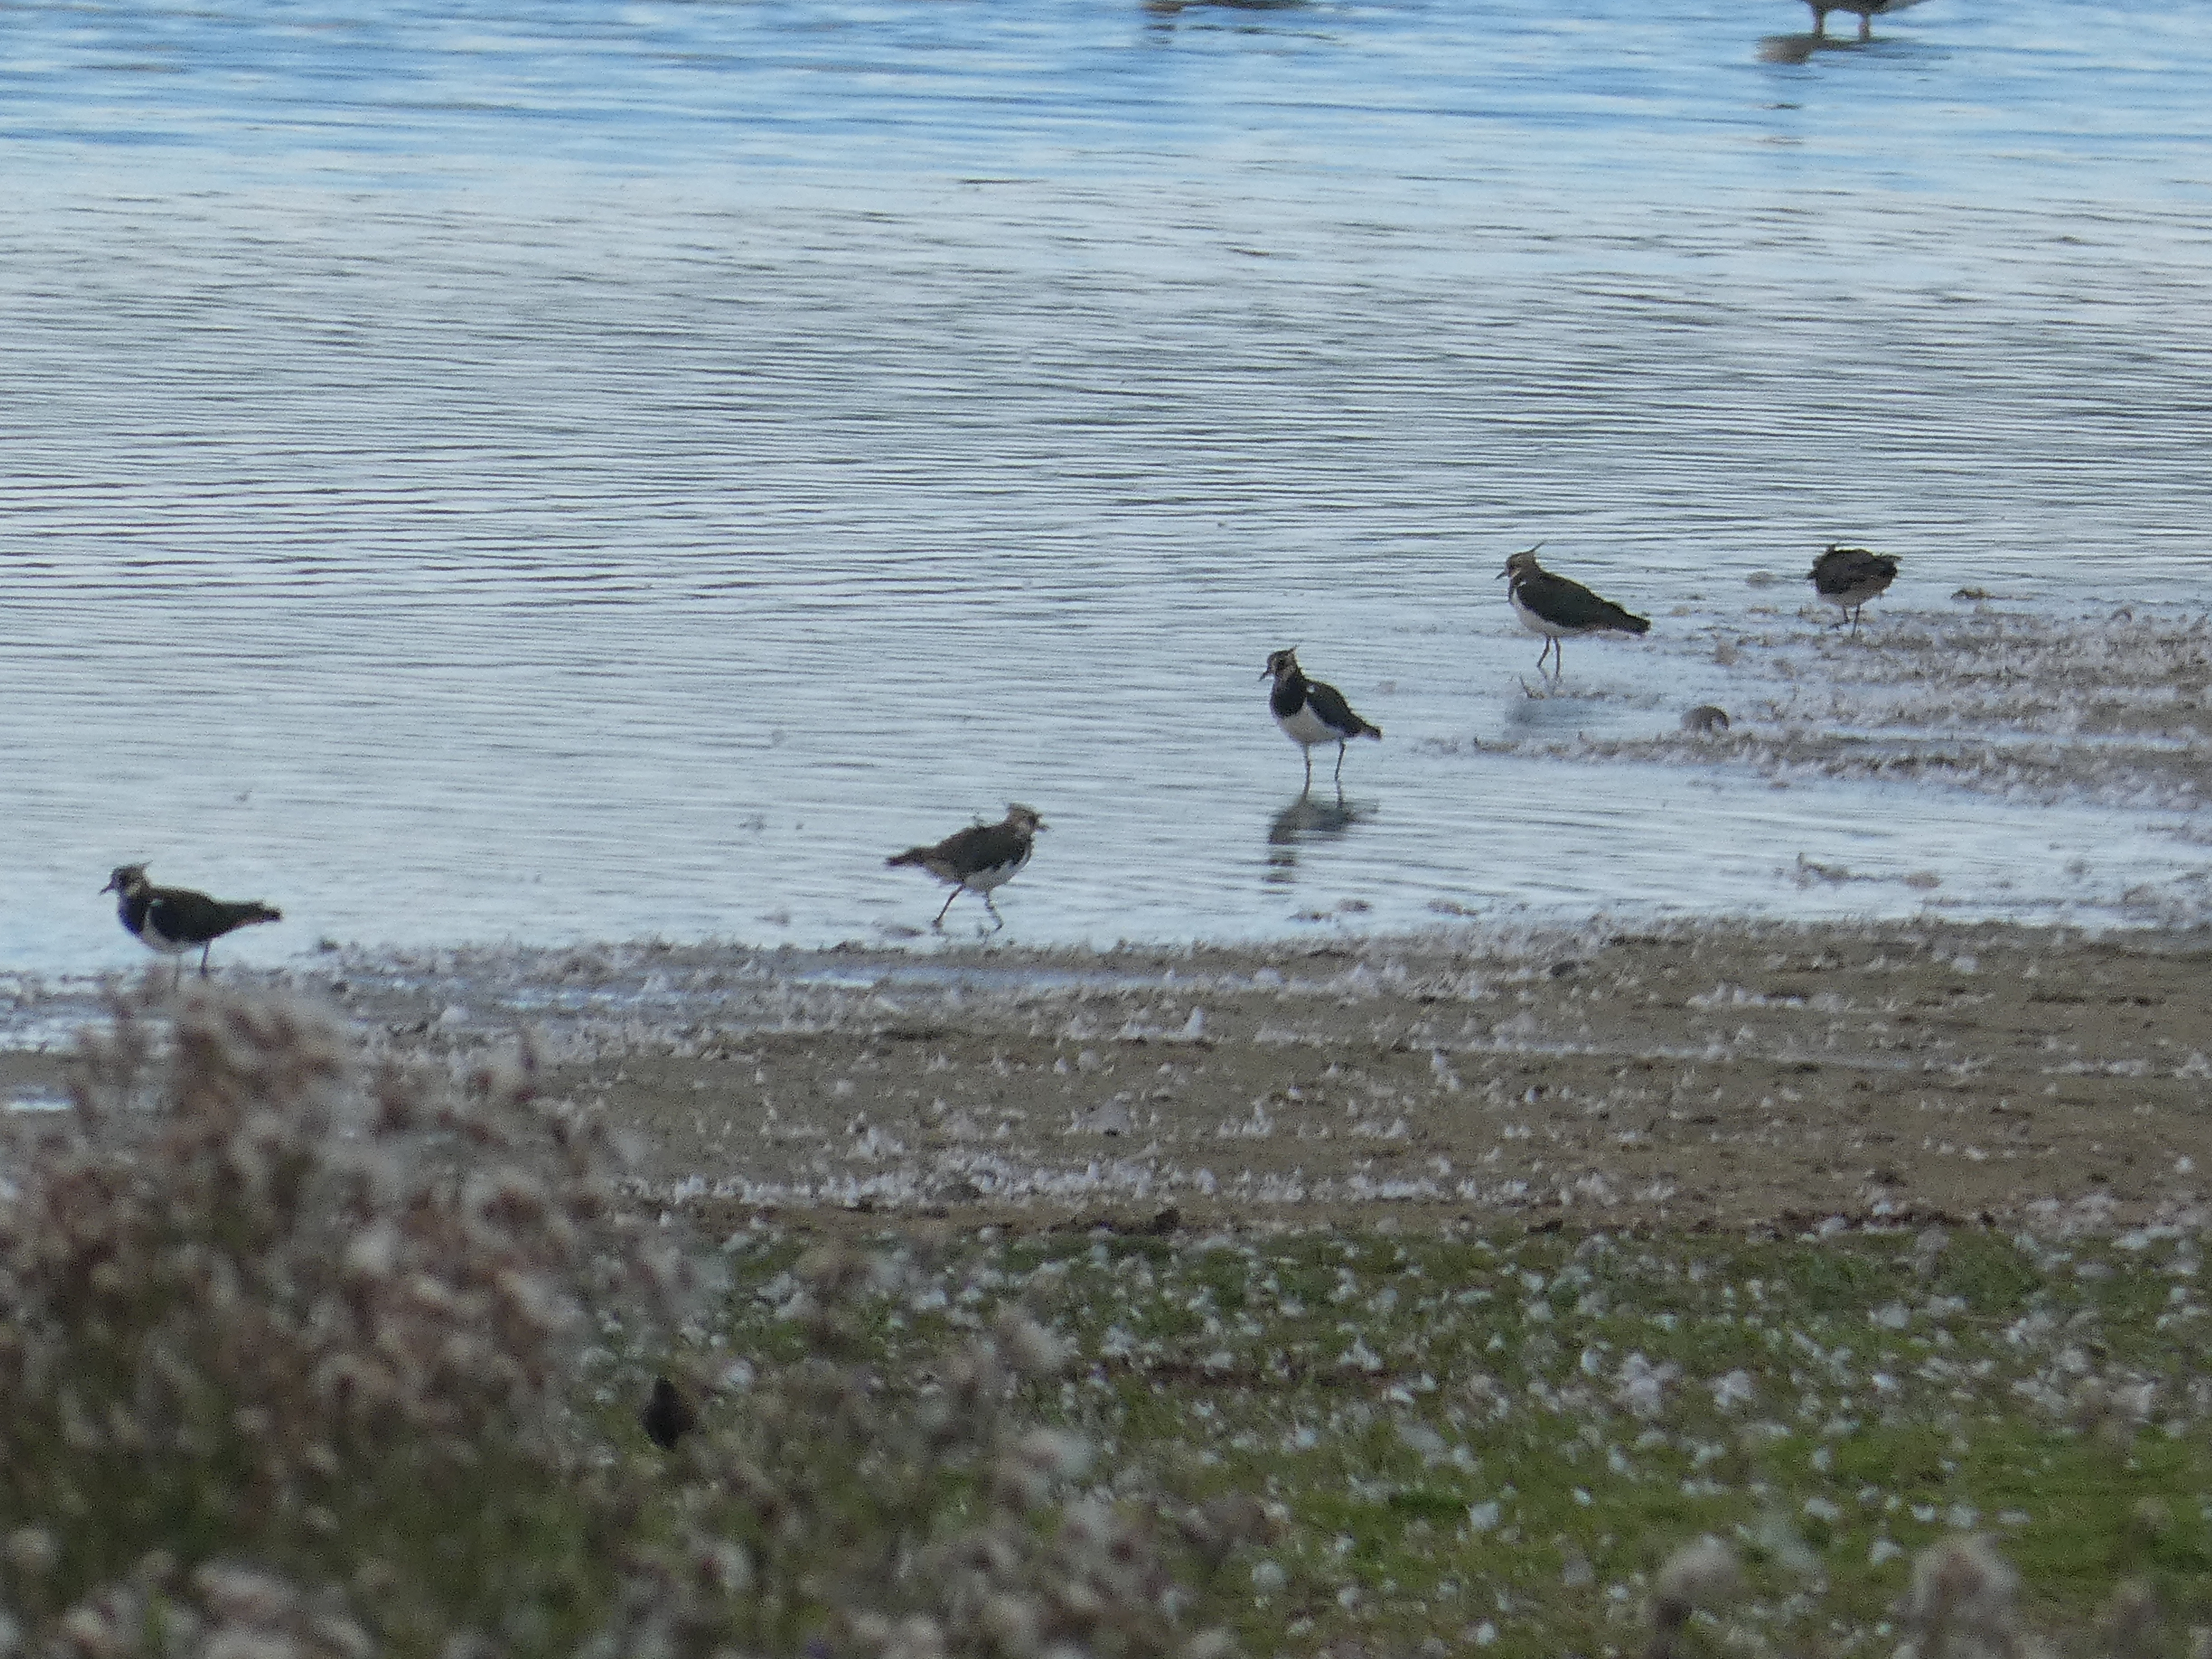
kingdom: Animalia
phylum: Chordata
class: Aves
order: Charadriiformes
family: Charadriidae
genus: Vanellus
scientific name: Vanellus vanellus
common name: Vibe
